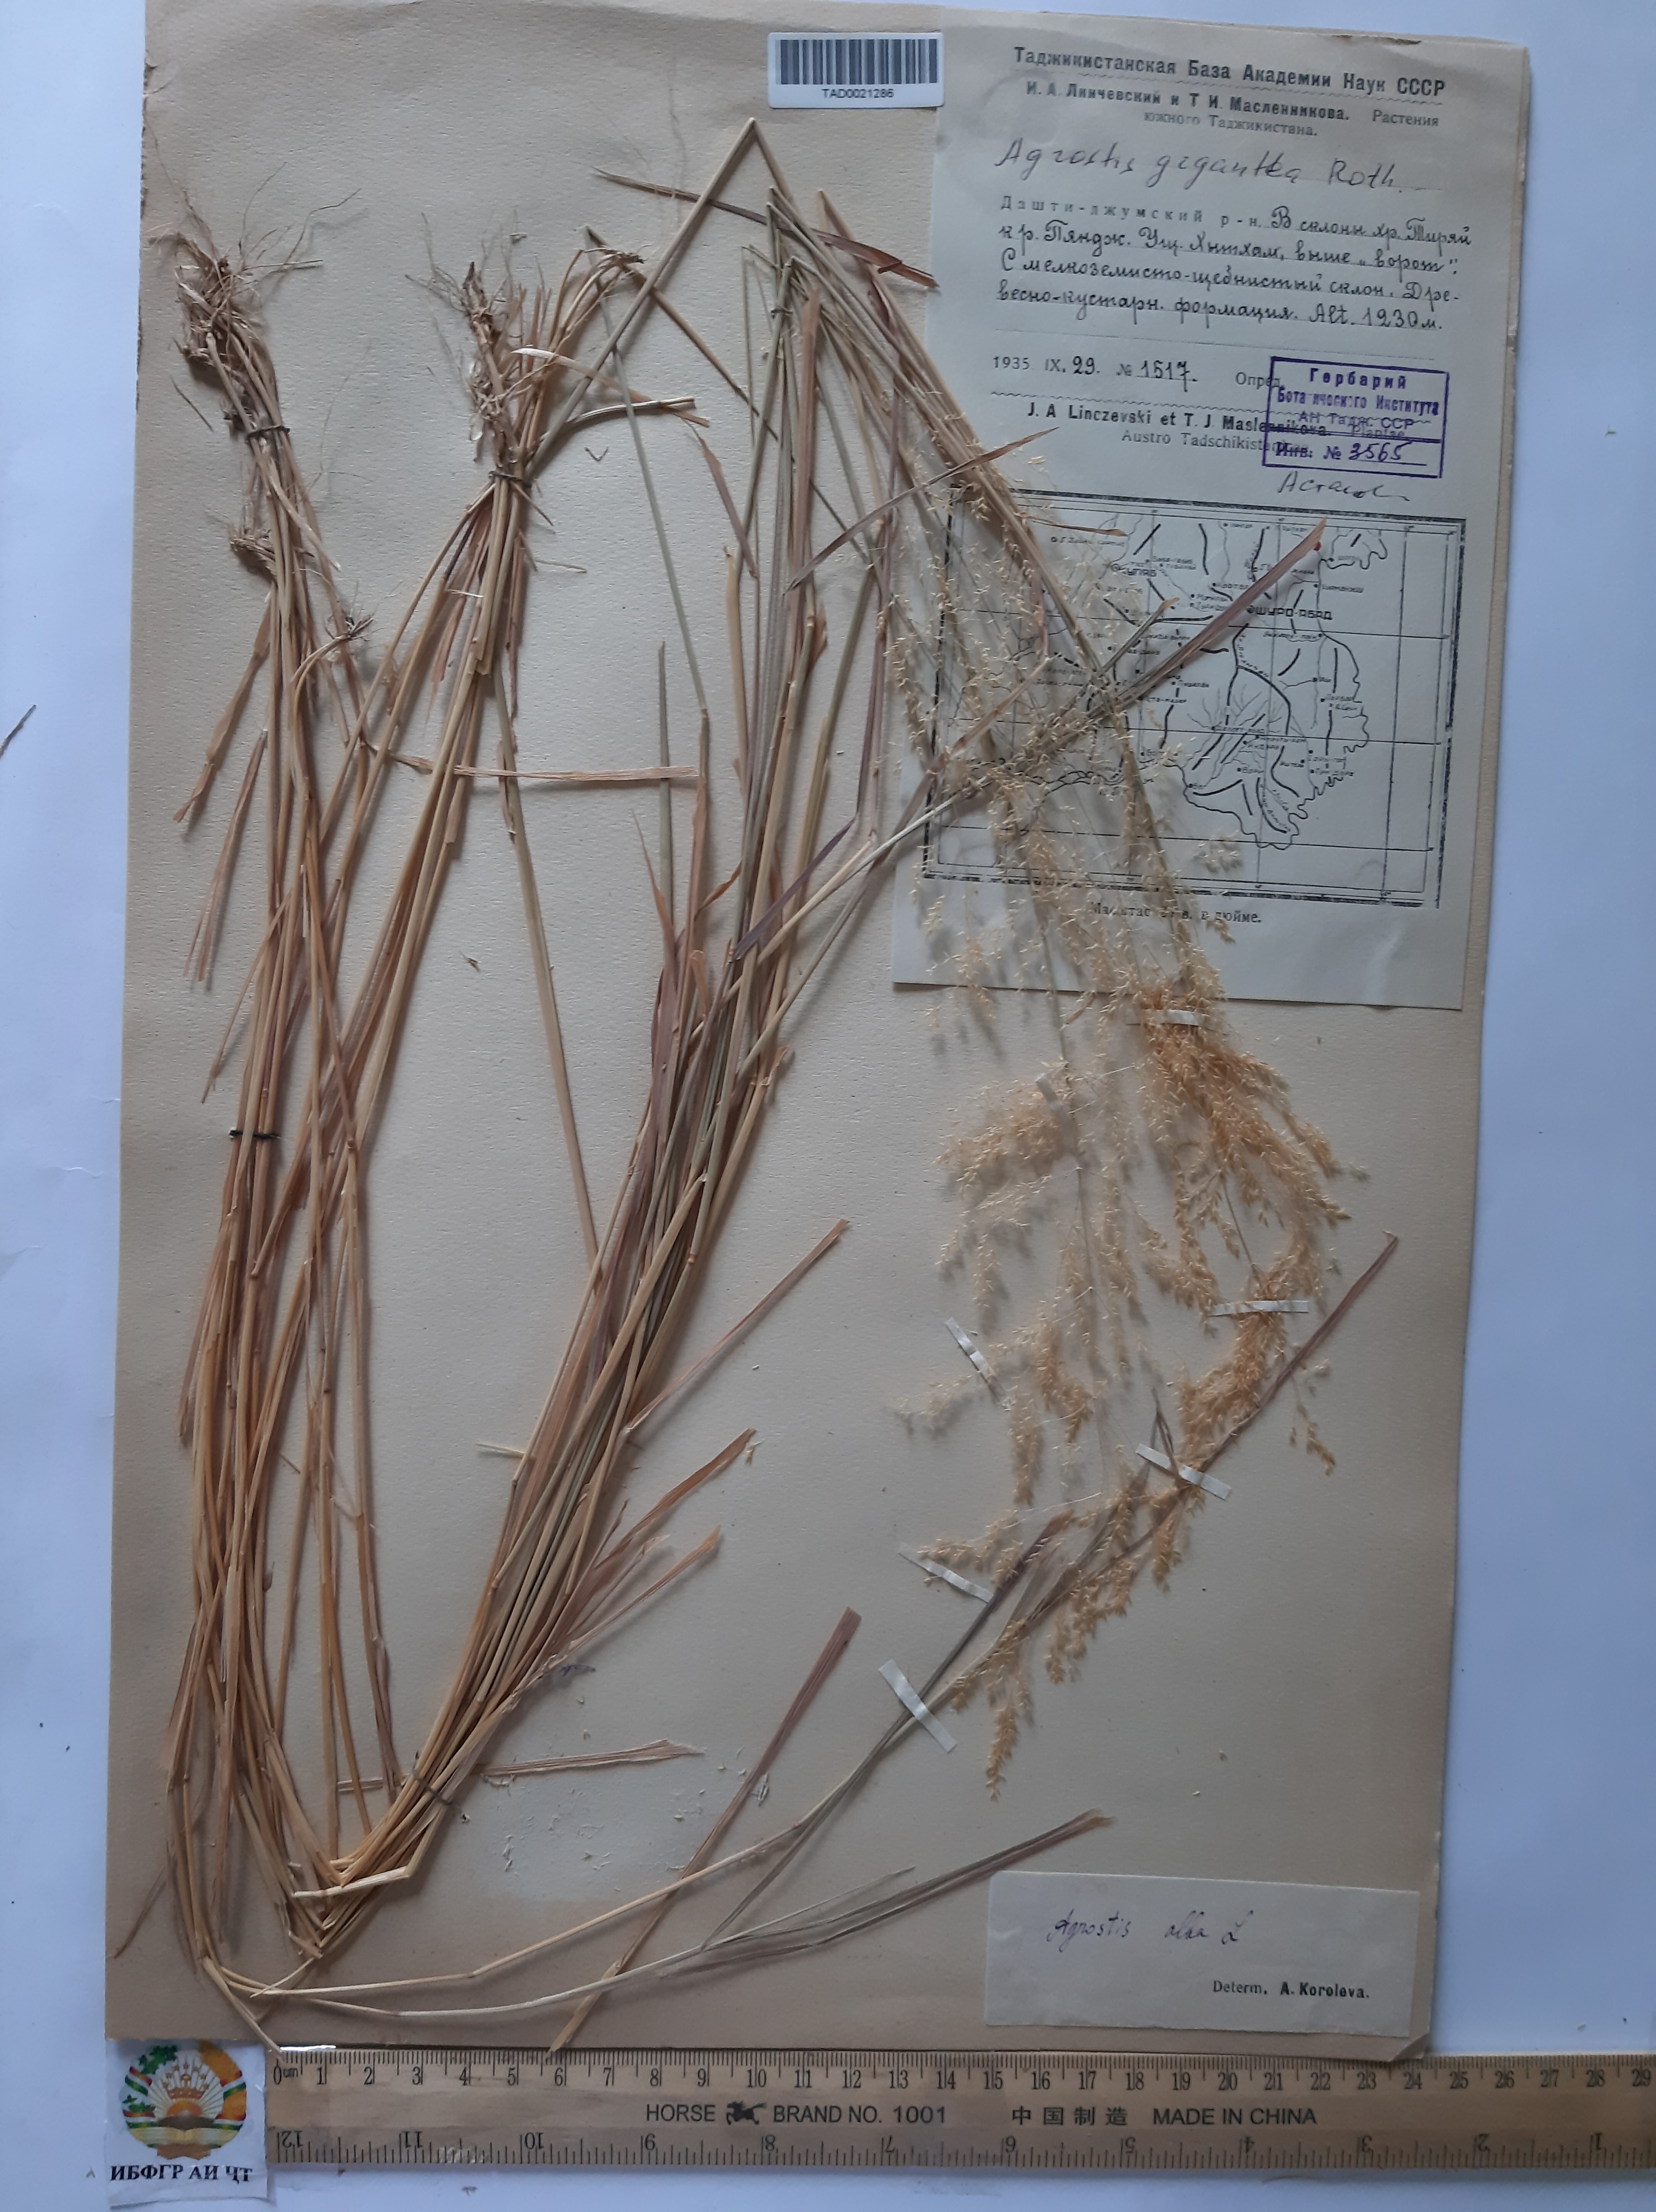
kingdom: Plantae
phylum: Tracheophyta
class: Liliopsida
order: Poales
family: Poaceae
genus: Poa
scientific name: Poa nemoralis
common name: Wood bluegrass
